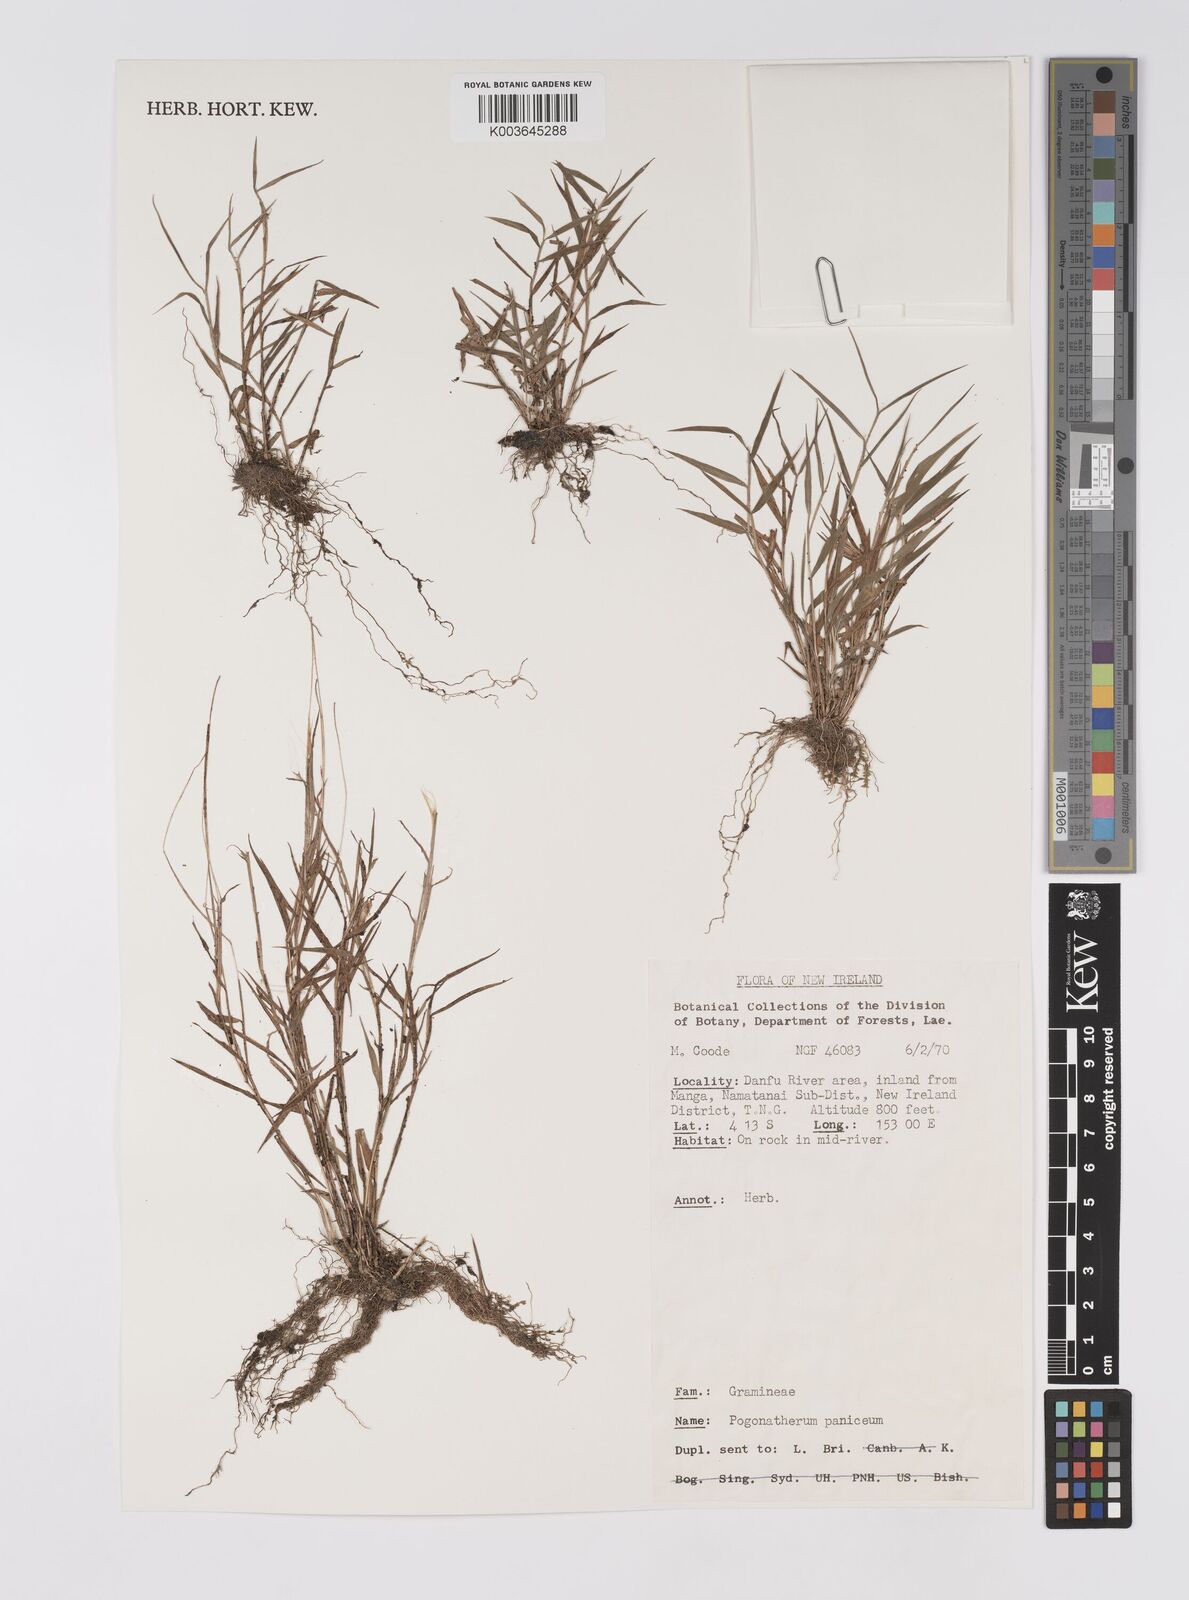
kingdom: Plantae
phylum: Tracheophyta
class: Liliopsida
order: Poales
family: Poaceae
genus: Pogonatherum
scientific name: Pogonatherum paniceum
